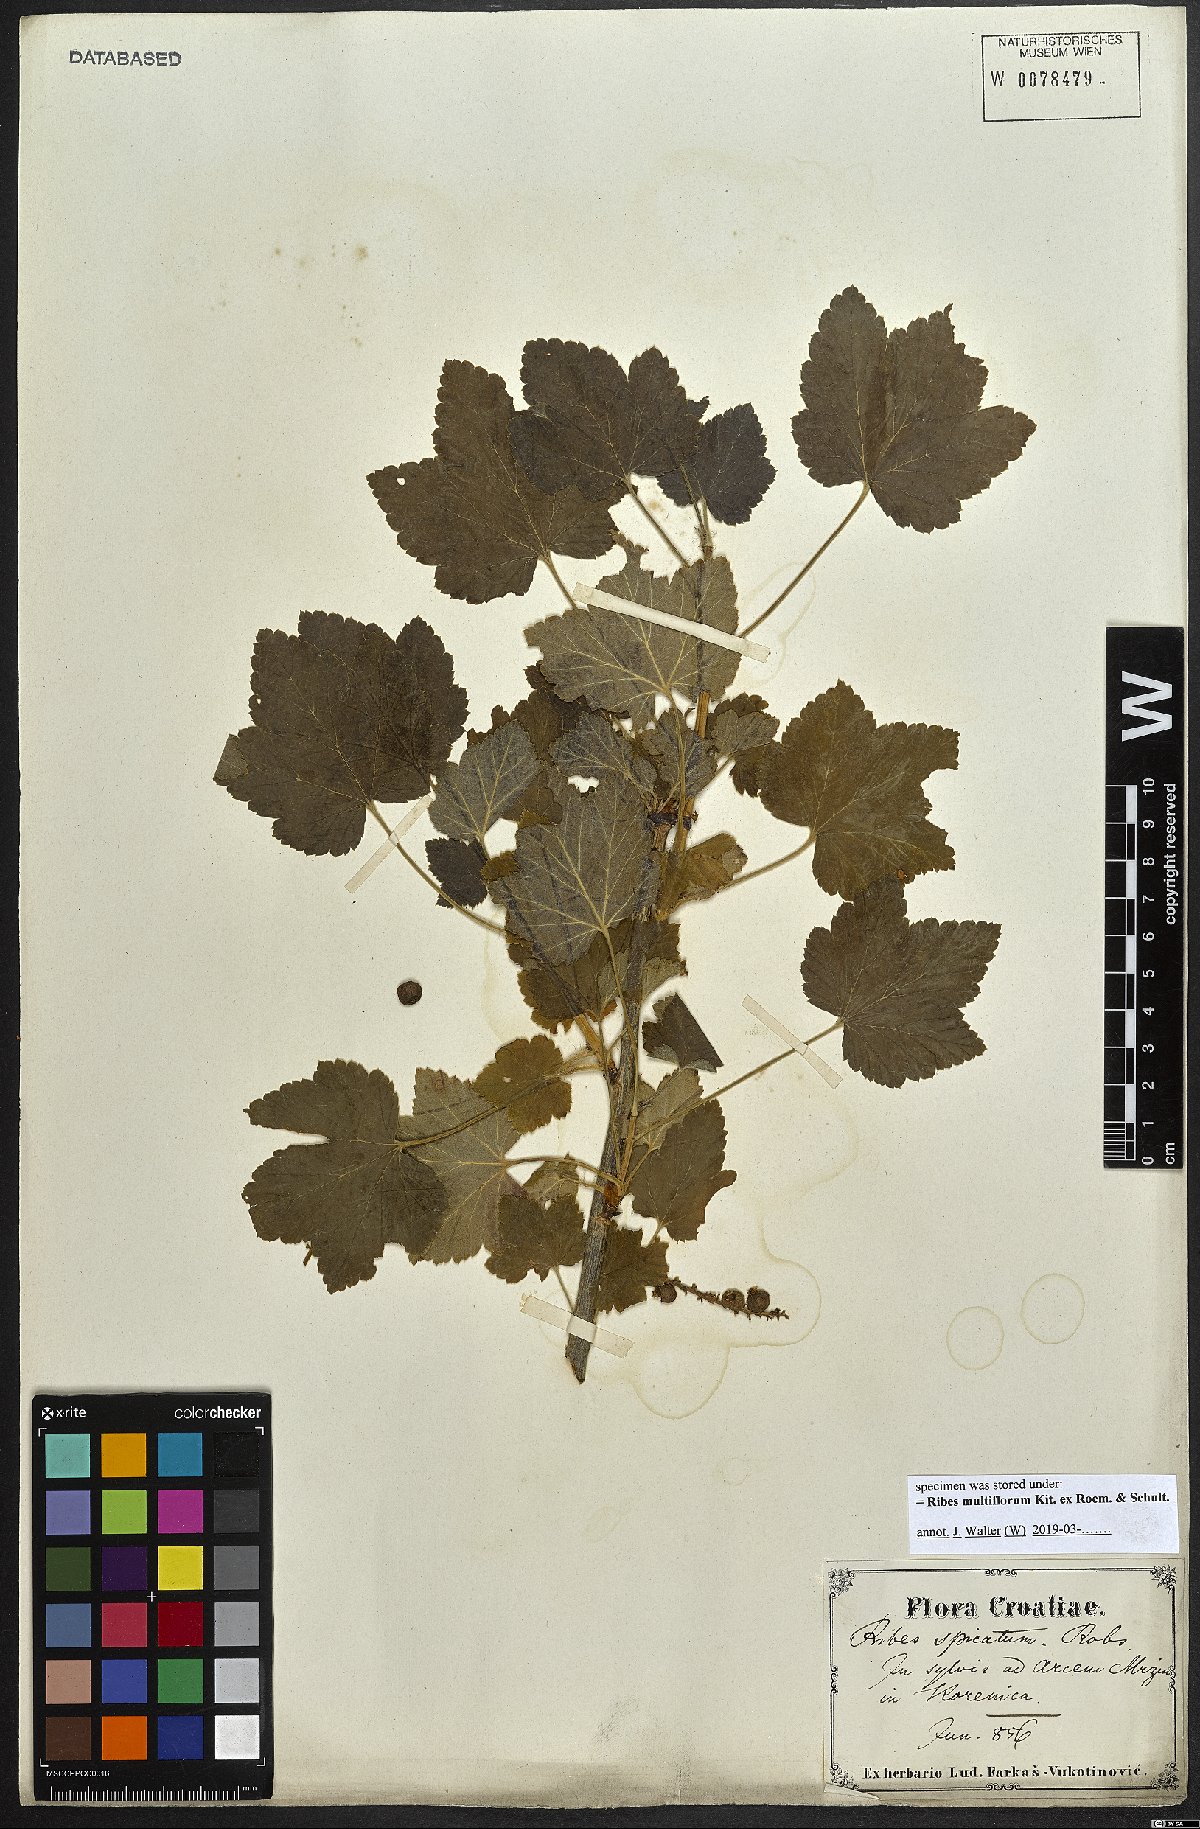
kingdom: Plantae
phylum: Tracheophyta
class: Magnoliopsida
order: Saxifragales
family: Grossulariaceae
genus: Ribes
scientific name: Ribes multiflorum
